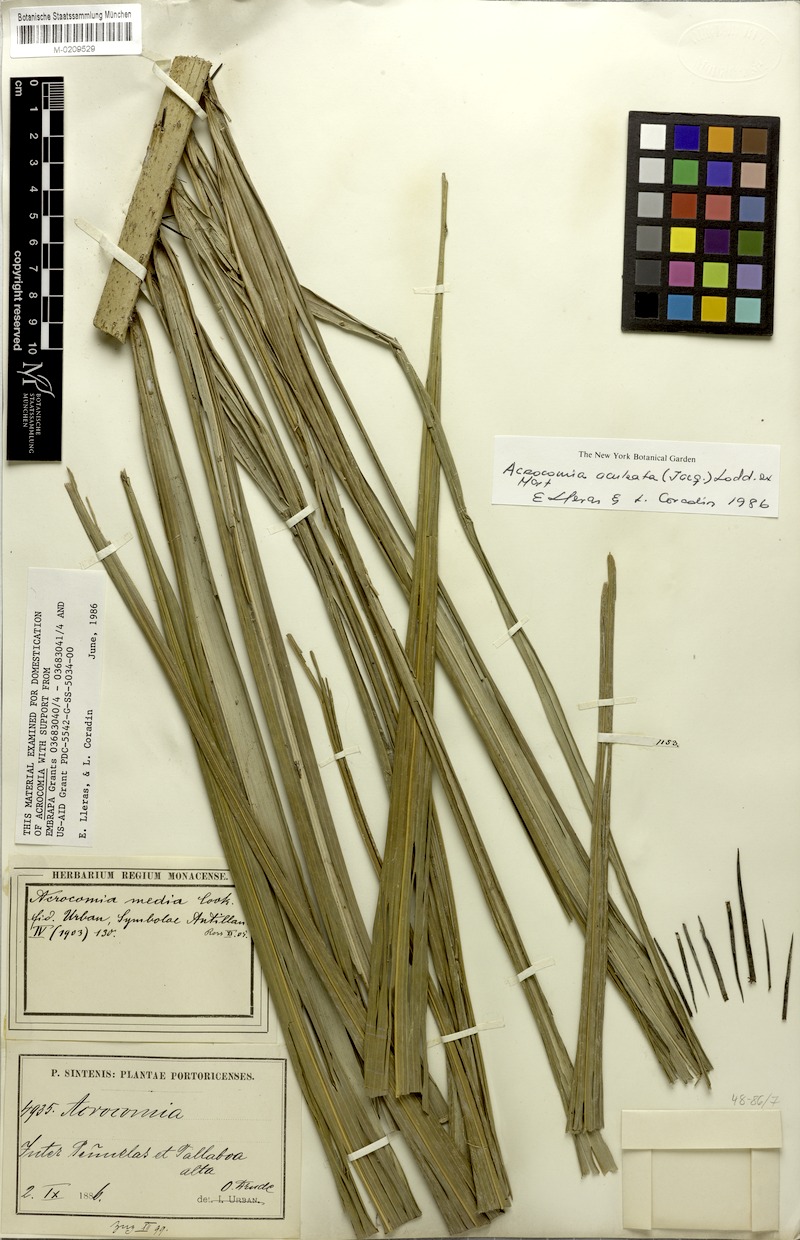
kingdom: Plantae
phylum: Tracheophyta
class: Liliopsida
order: Arecales
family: Arecaceae
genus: Acrocomia
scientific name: Acrocomia aculeata
